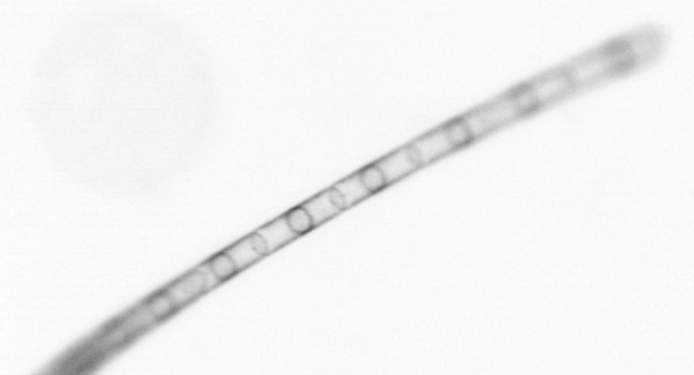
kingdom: Chromista
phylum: Ochrophyta
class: Bacillariophyceae
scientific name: Bacillariophyceae
